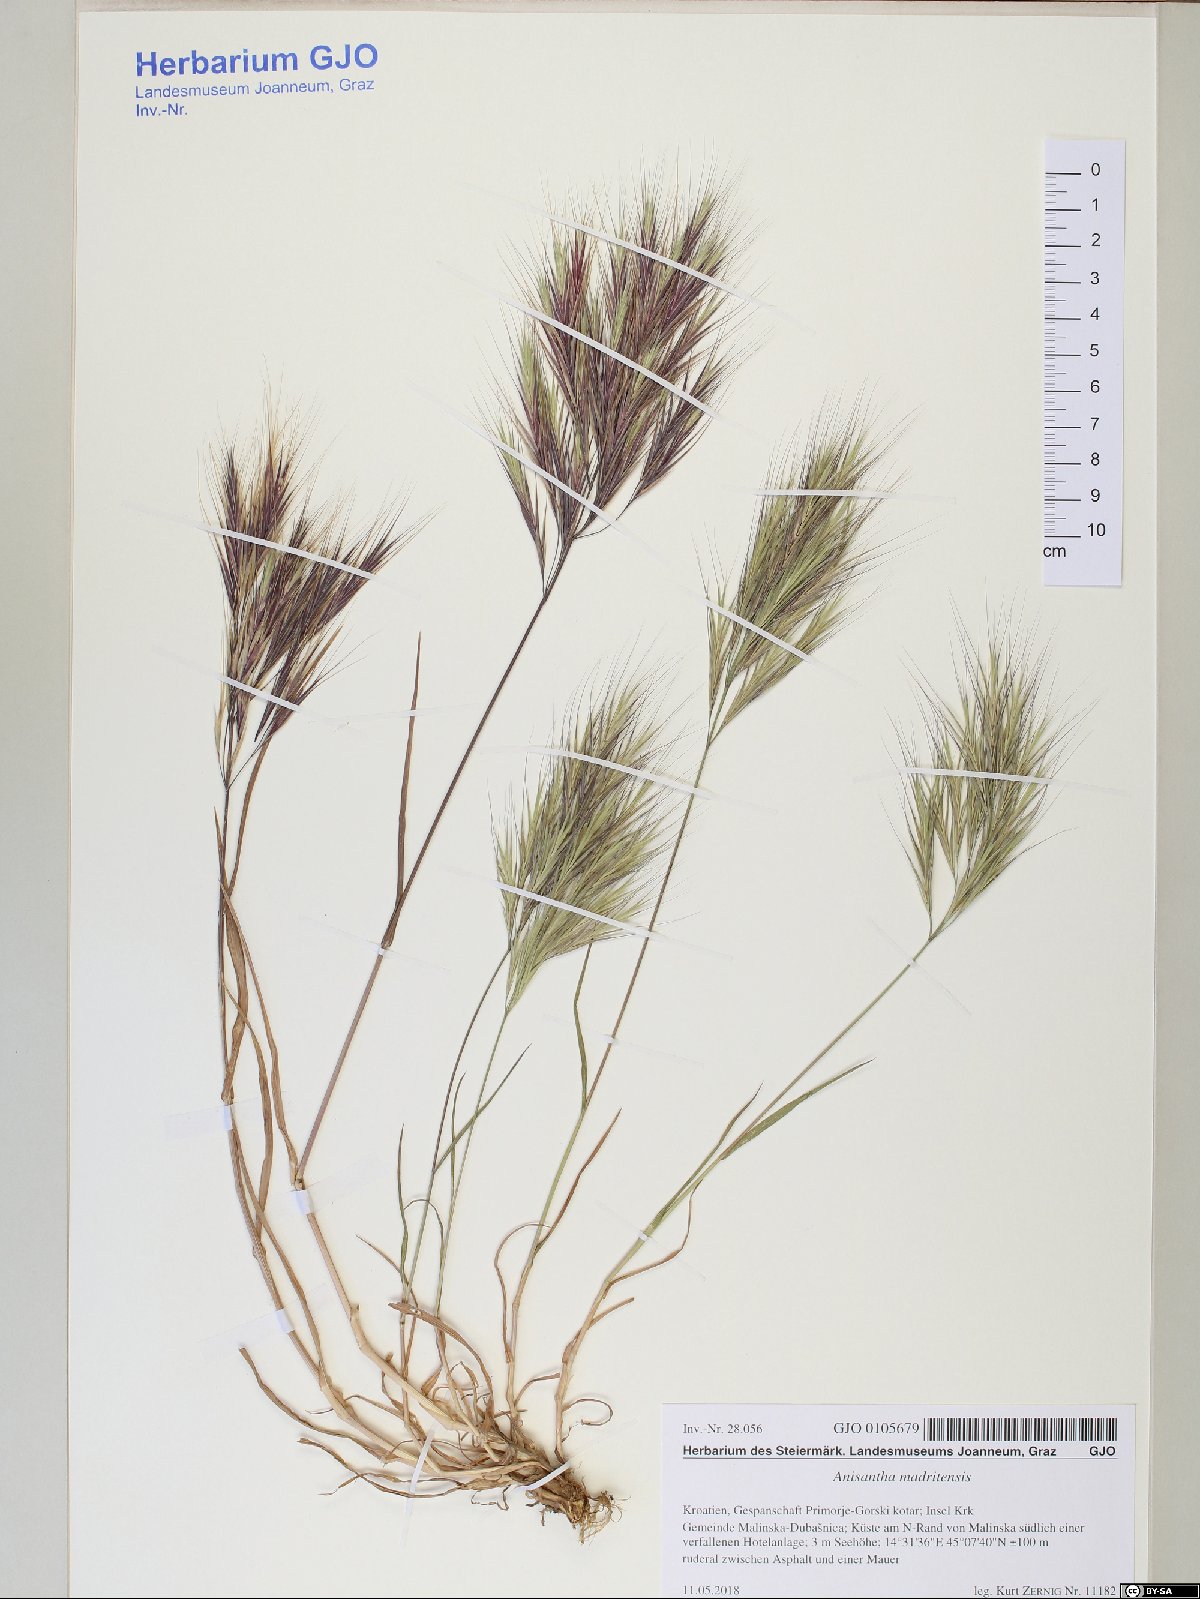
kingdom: Plantae
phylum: Tracheophyta
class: Liliopsida
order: Poales
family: Poaceae
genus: Bromus
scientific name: Bromus madritensis
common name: Compact brome
